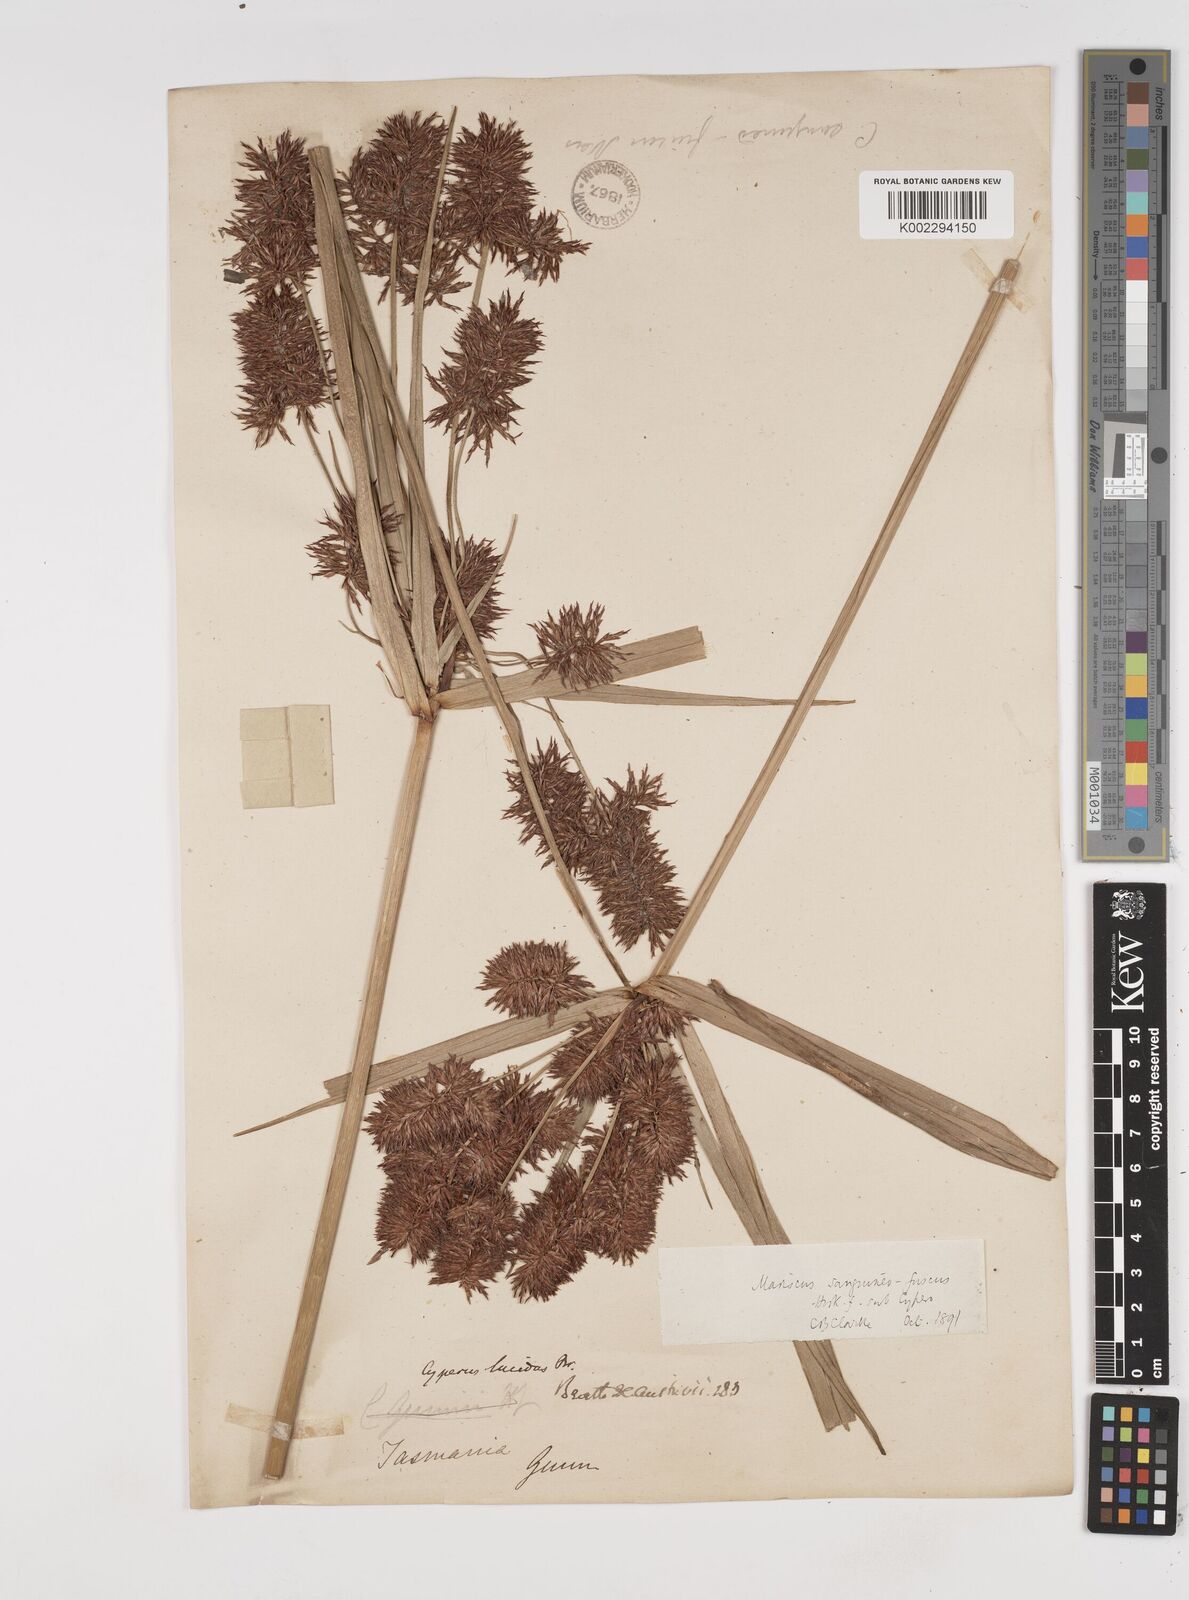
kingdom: Plantae
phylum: Tracheophyta
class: Liliopsida
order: Poales
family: Cyperaceae
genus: Cyperus
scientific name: Cyperus lucidus
